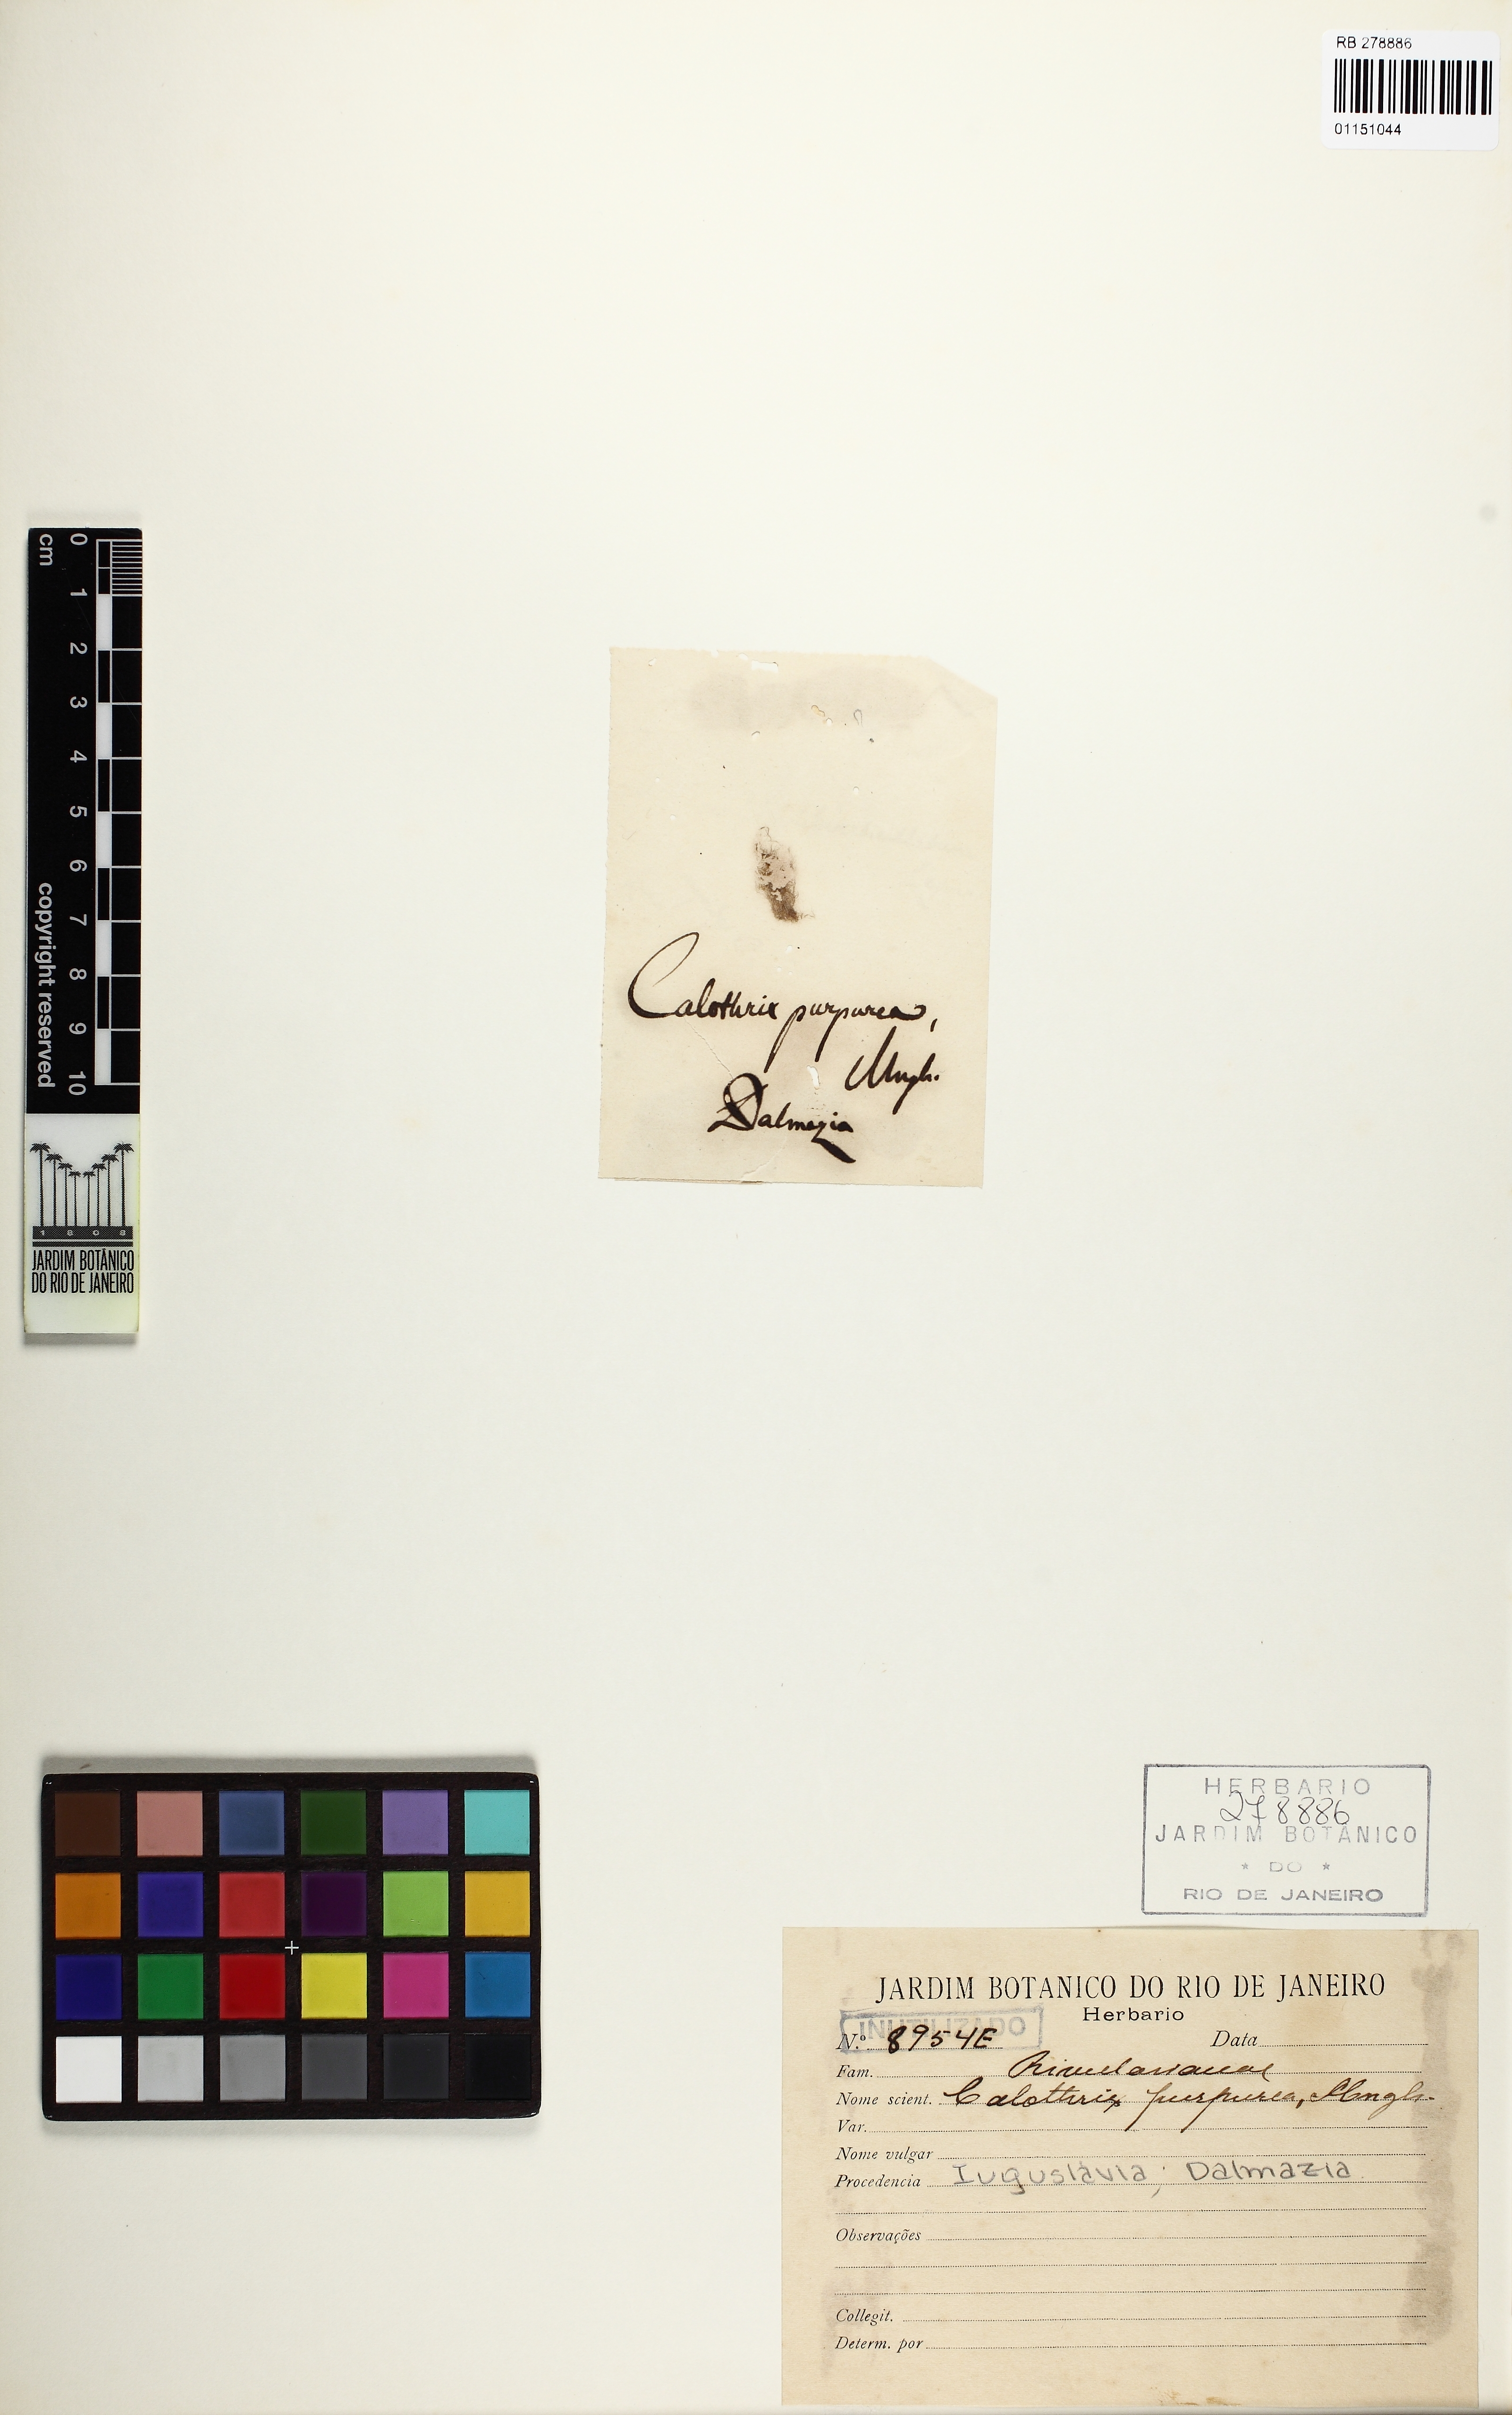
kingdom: Bacteria
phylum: Cyanobacteria
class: Cyanobacteriia
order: Cyanobacteriales
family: Rivulariaceae
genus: Calothrix
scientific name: Calothrix
